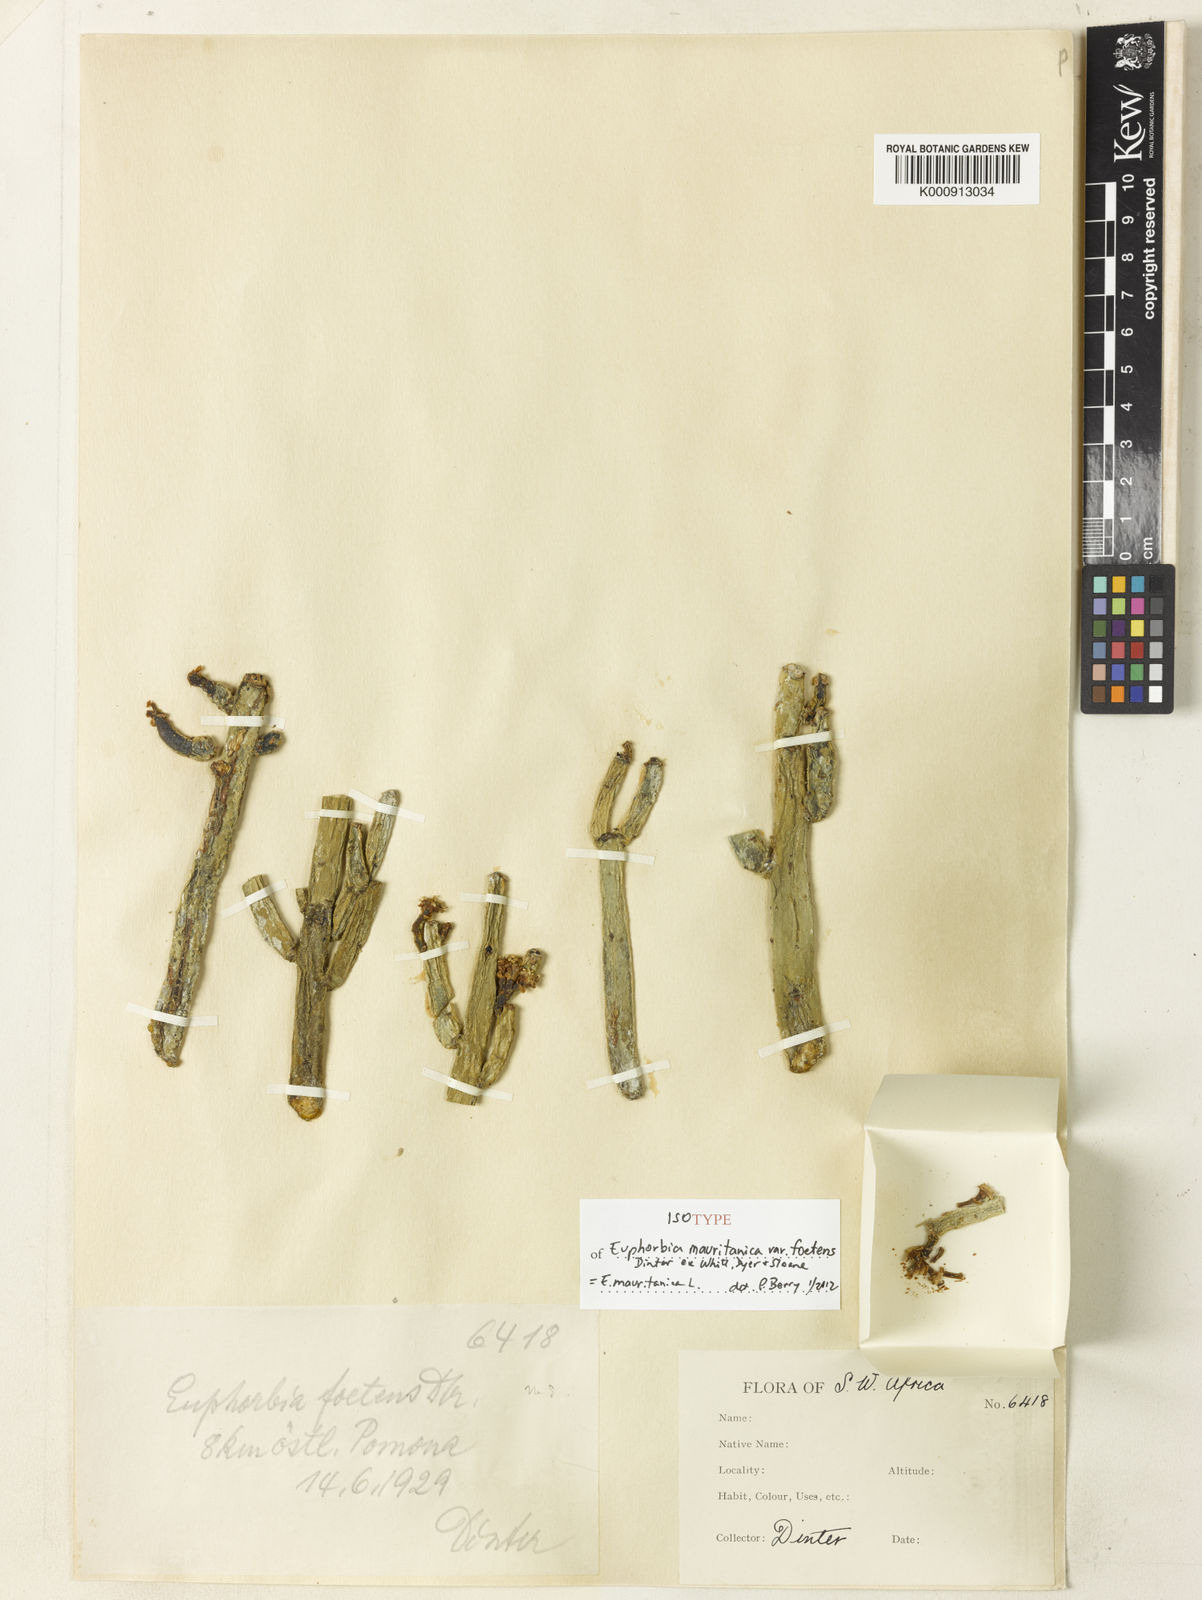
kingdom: Plantae
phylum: Tracheophyta
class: Magnoliopsida
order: Malpighiales
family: Euphorbiaceae
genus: Euphorbia
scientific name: Euphorbia mauritanica
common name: Jackal's-food
